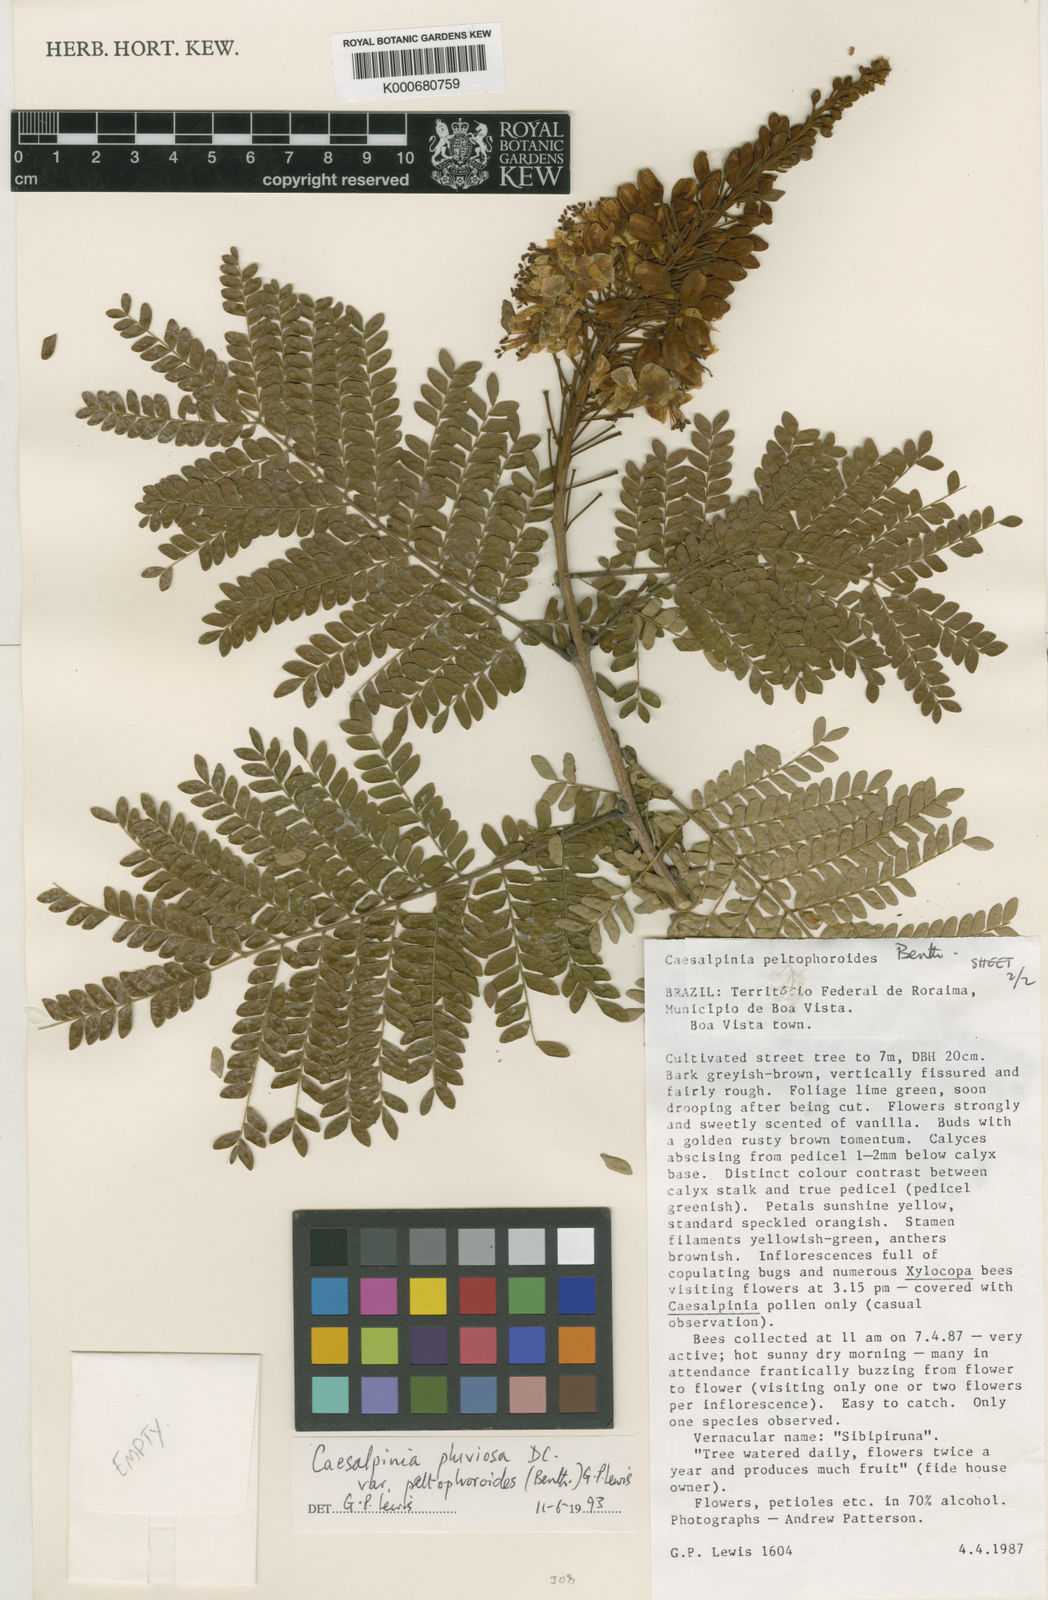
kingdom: Plantae
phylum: Tracheophyta
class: Magnoliopsida
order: Fabales
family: Fabaceae
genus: Cenostigma
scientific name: Cenostigma pluviosum
